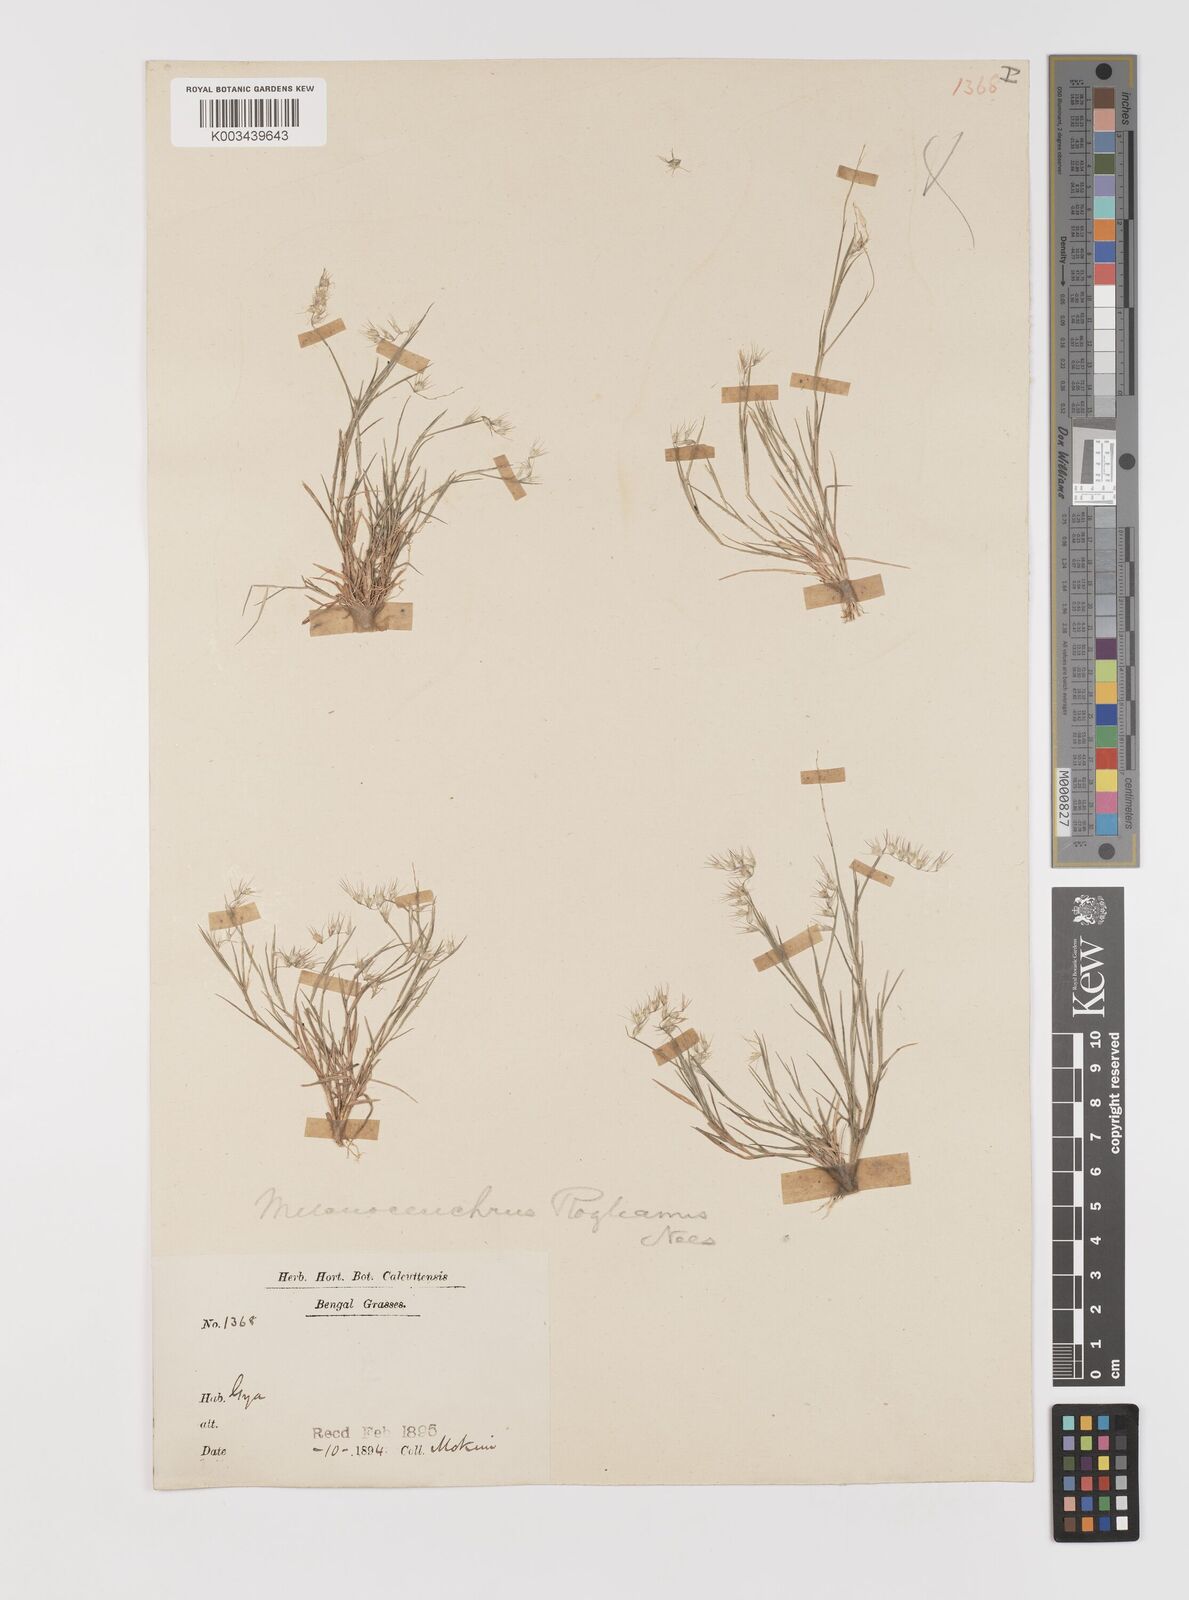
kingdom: Plantae
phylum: Tracheophyta
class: Liliopsida
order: Poales
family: Poaceae
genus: Melanocenchris
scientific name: Melanocenchris jacquemontii
